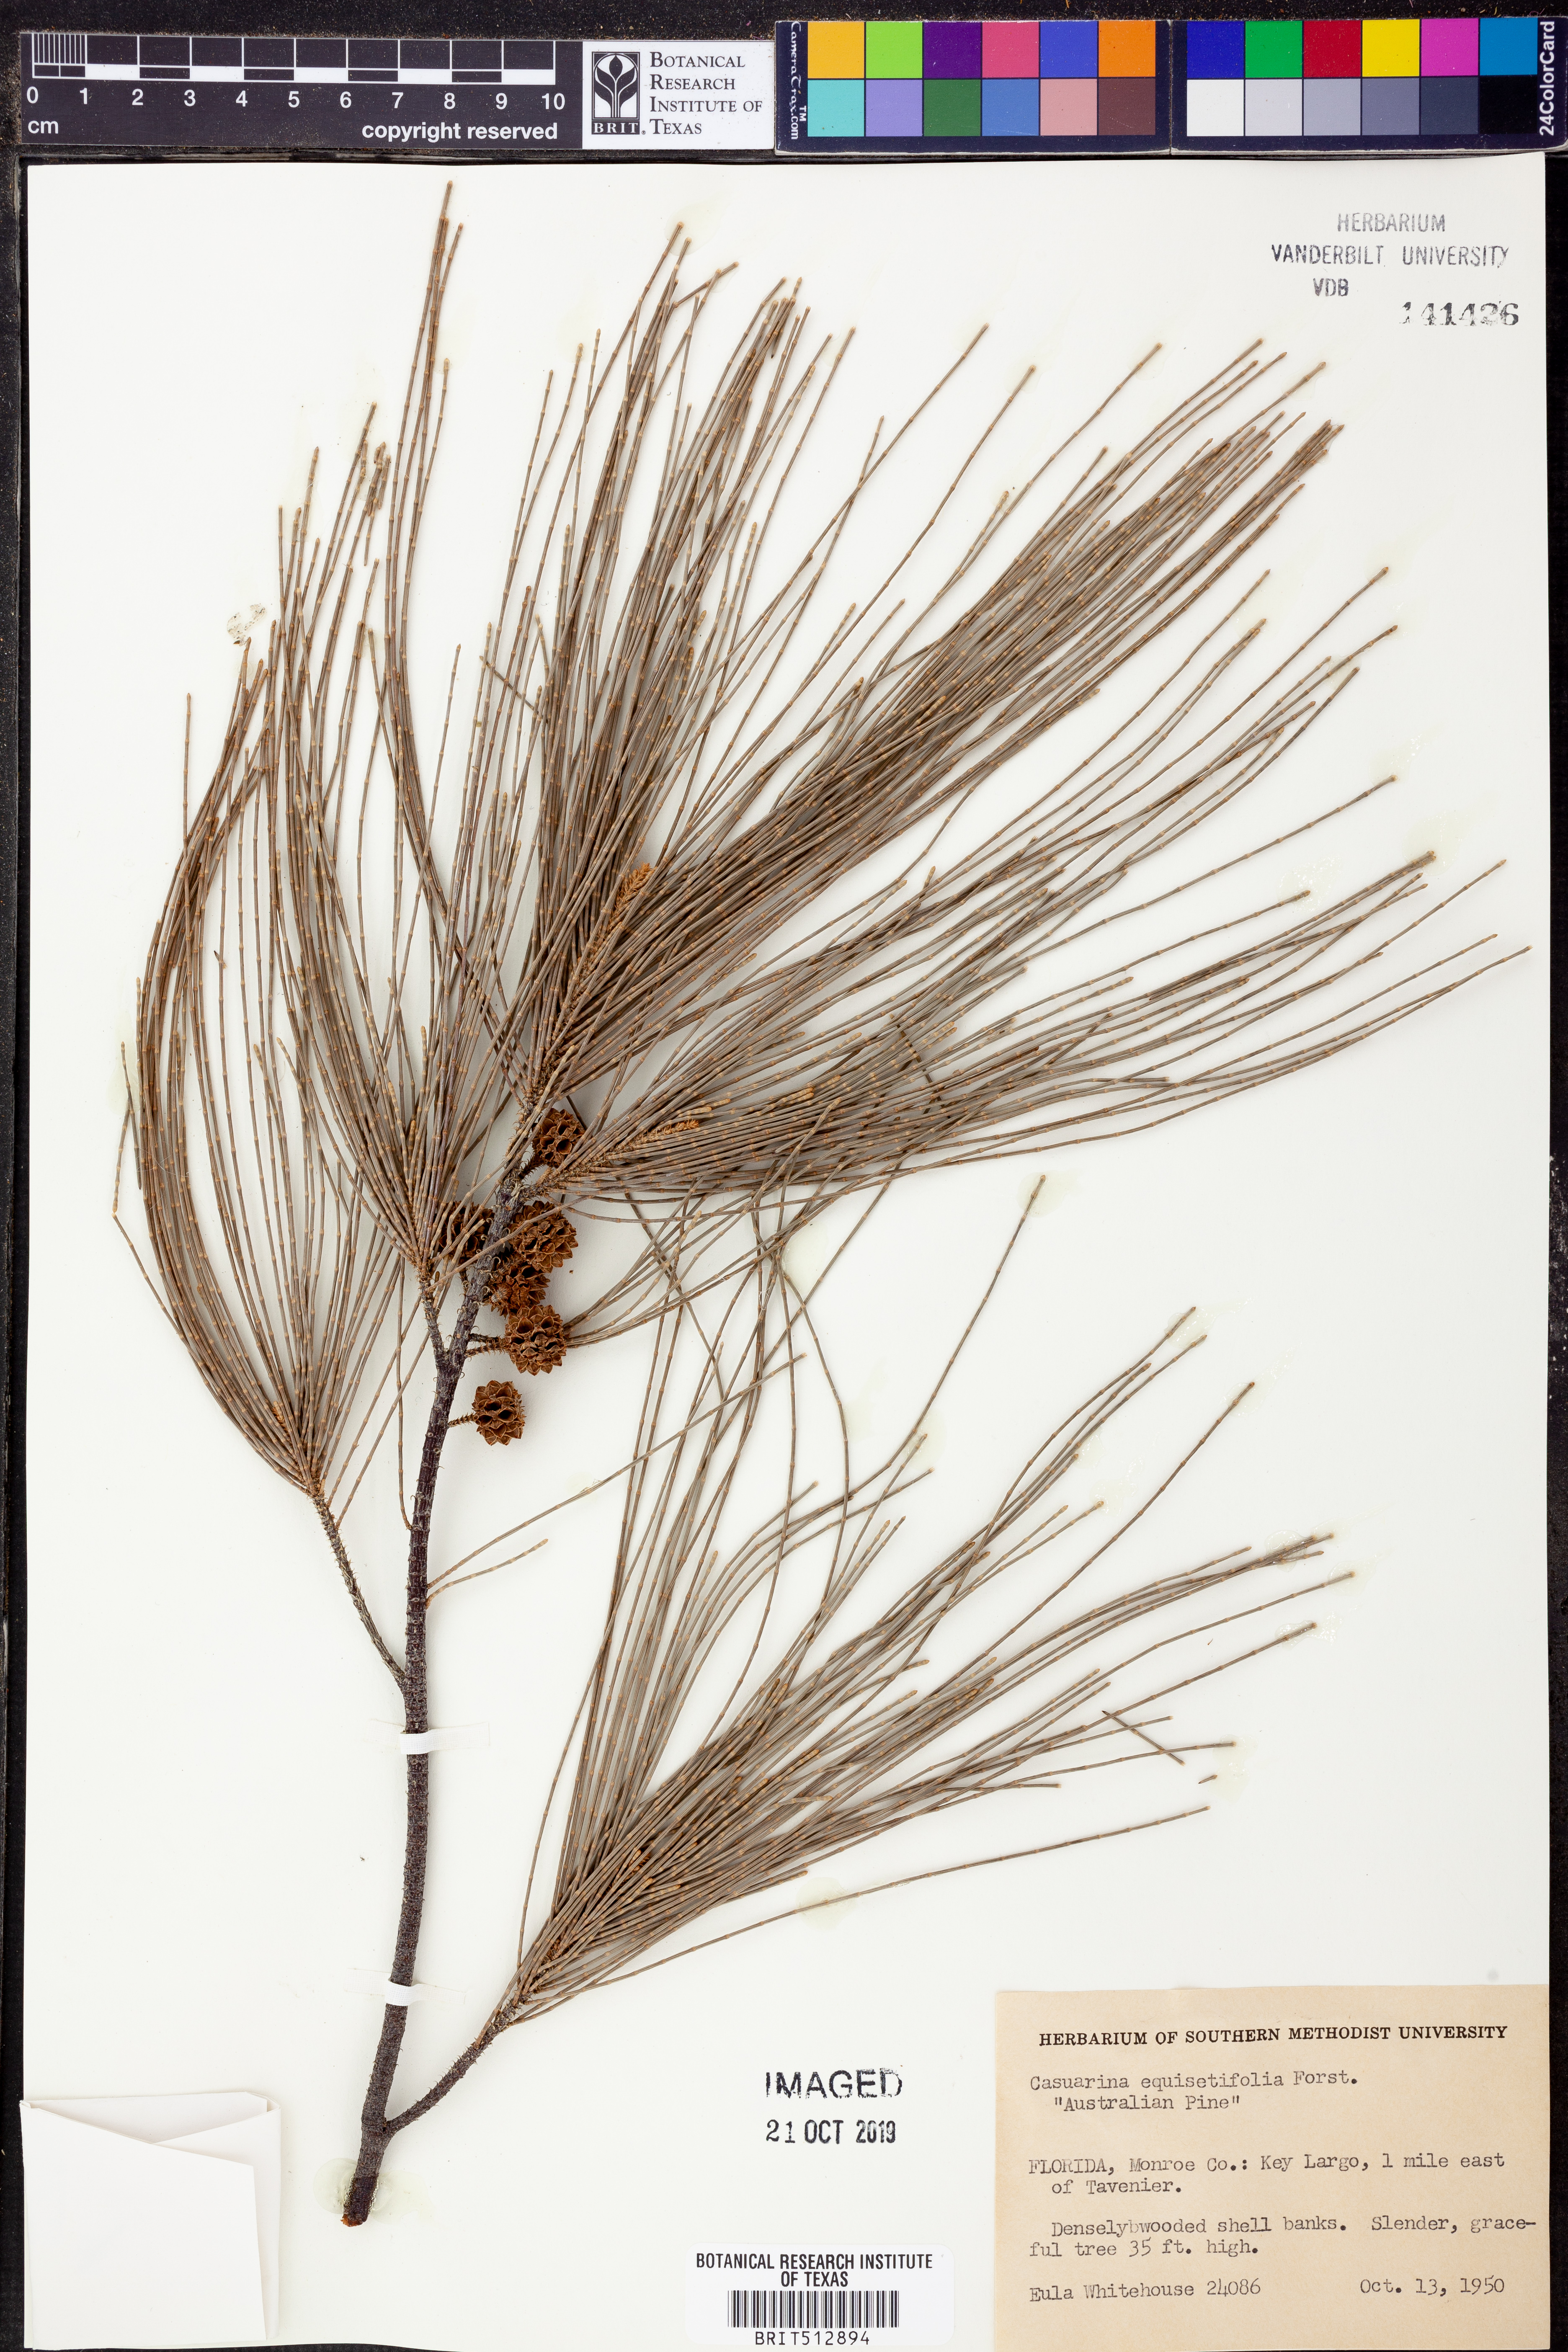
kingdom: Plantae
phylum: Tracheophyta
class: Magnoliopsida
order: Fagales
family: Casuarinaceae
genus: Casuarina
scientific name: Casuarina equisetifolia
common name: Beach sheoak
